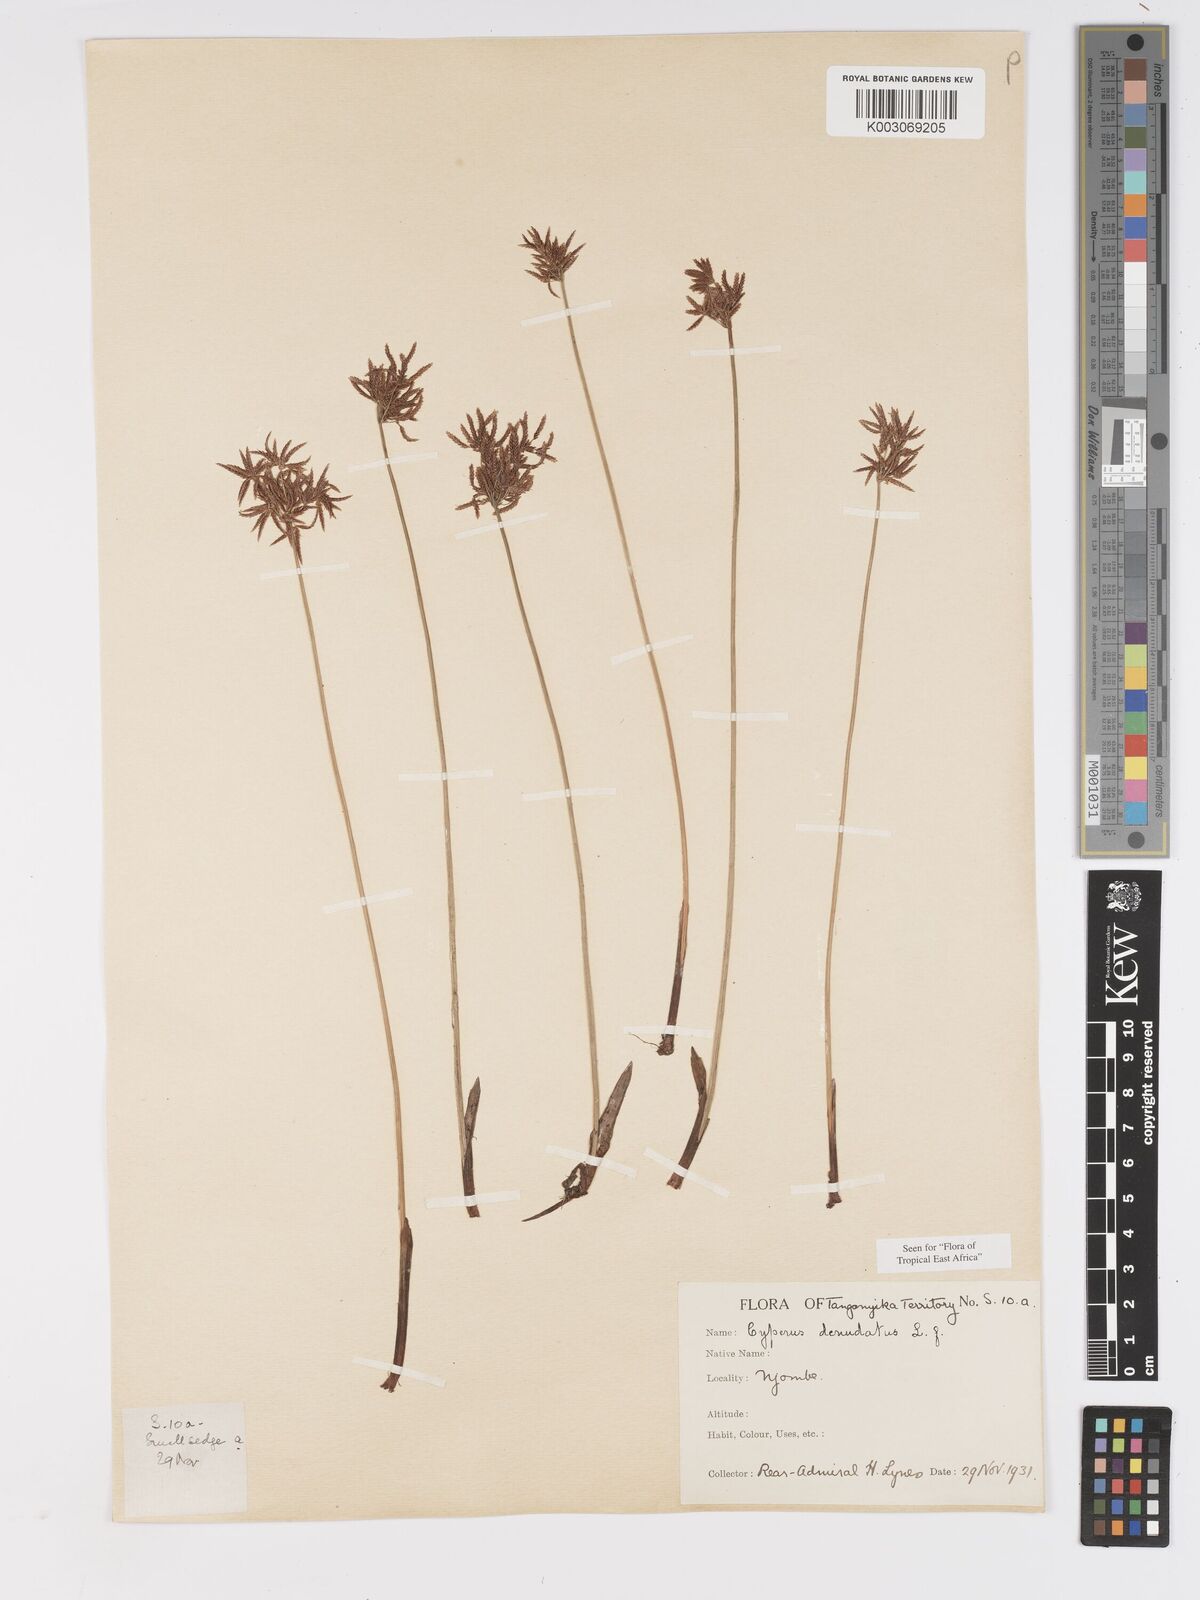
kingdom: Plantae
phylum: Tracheophyta
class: Liliopsida
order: Poales
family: Cyperaceae
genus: Cyperus
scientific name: Cyperus denudatus
